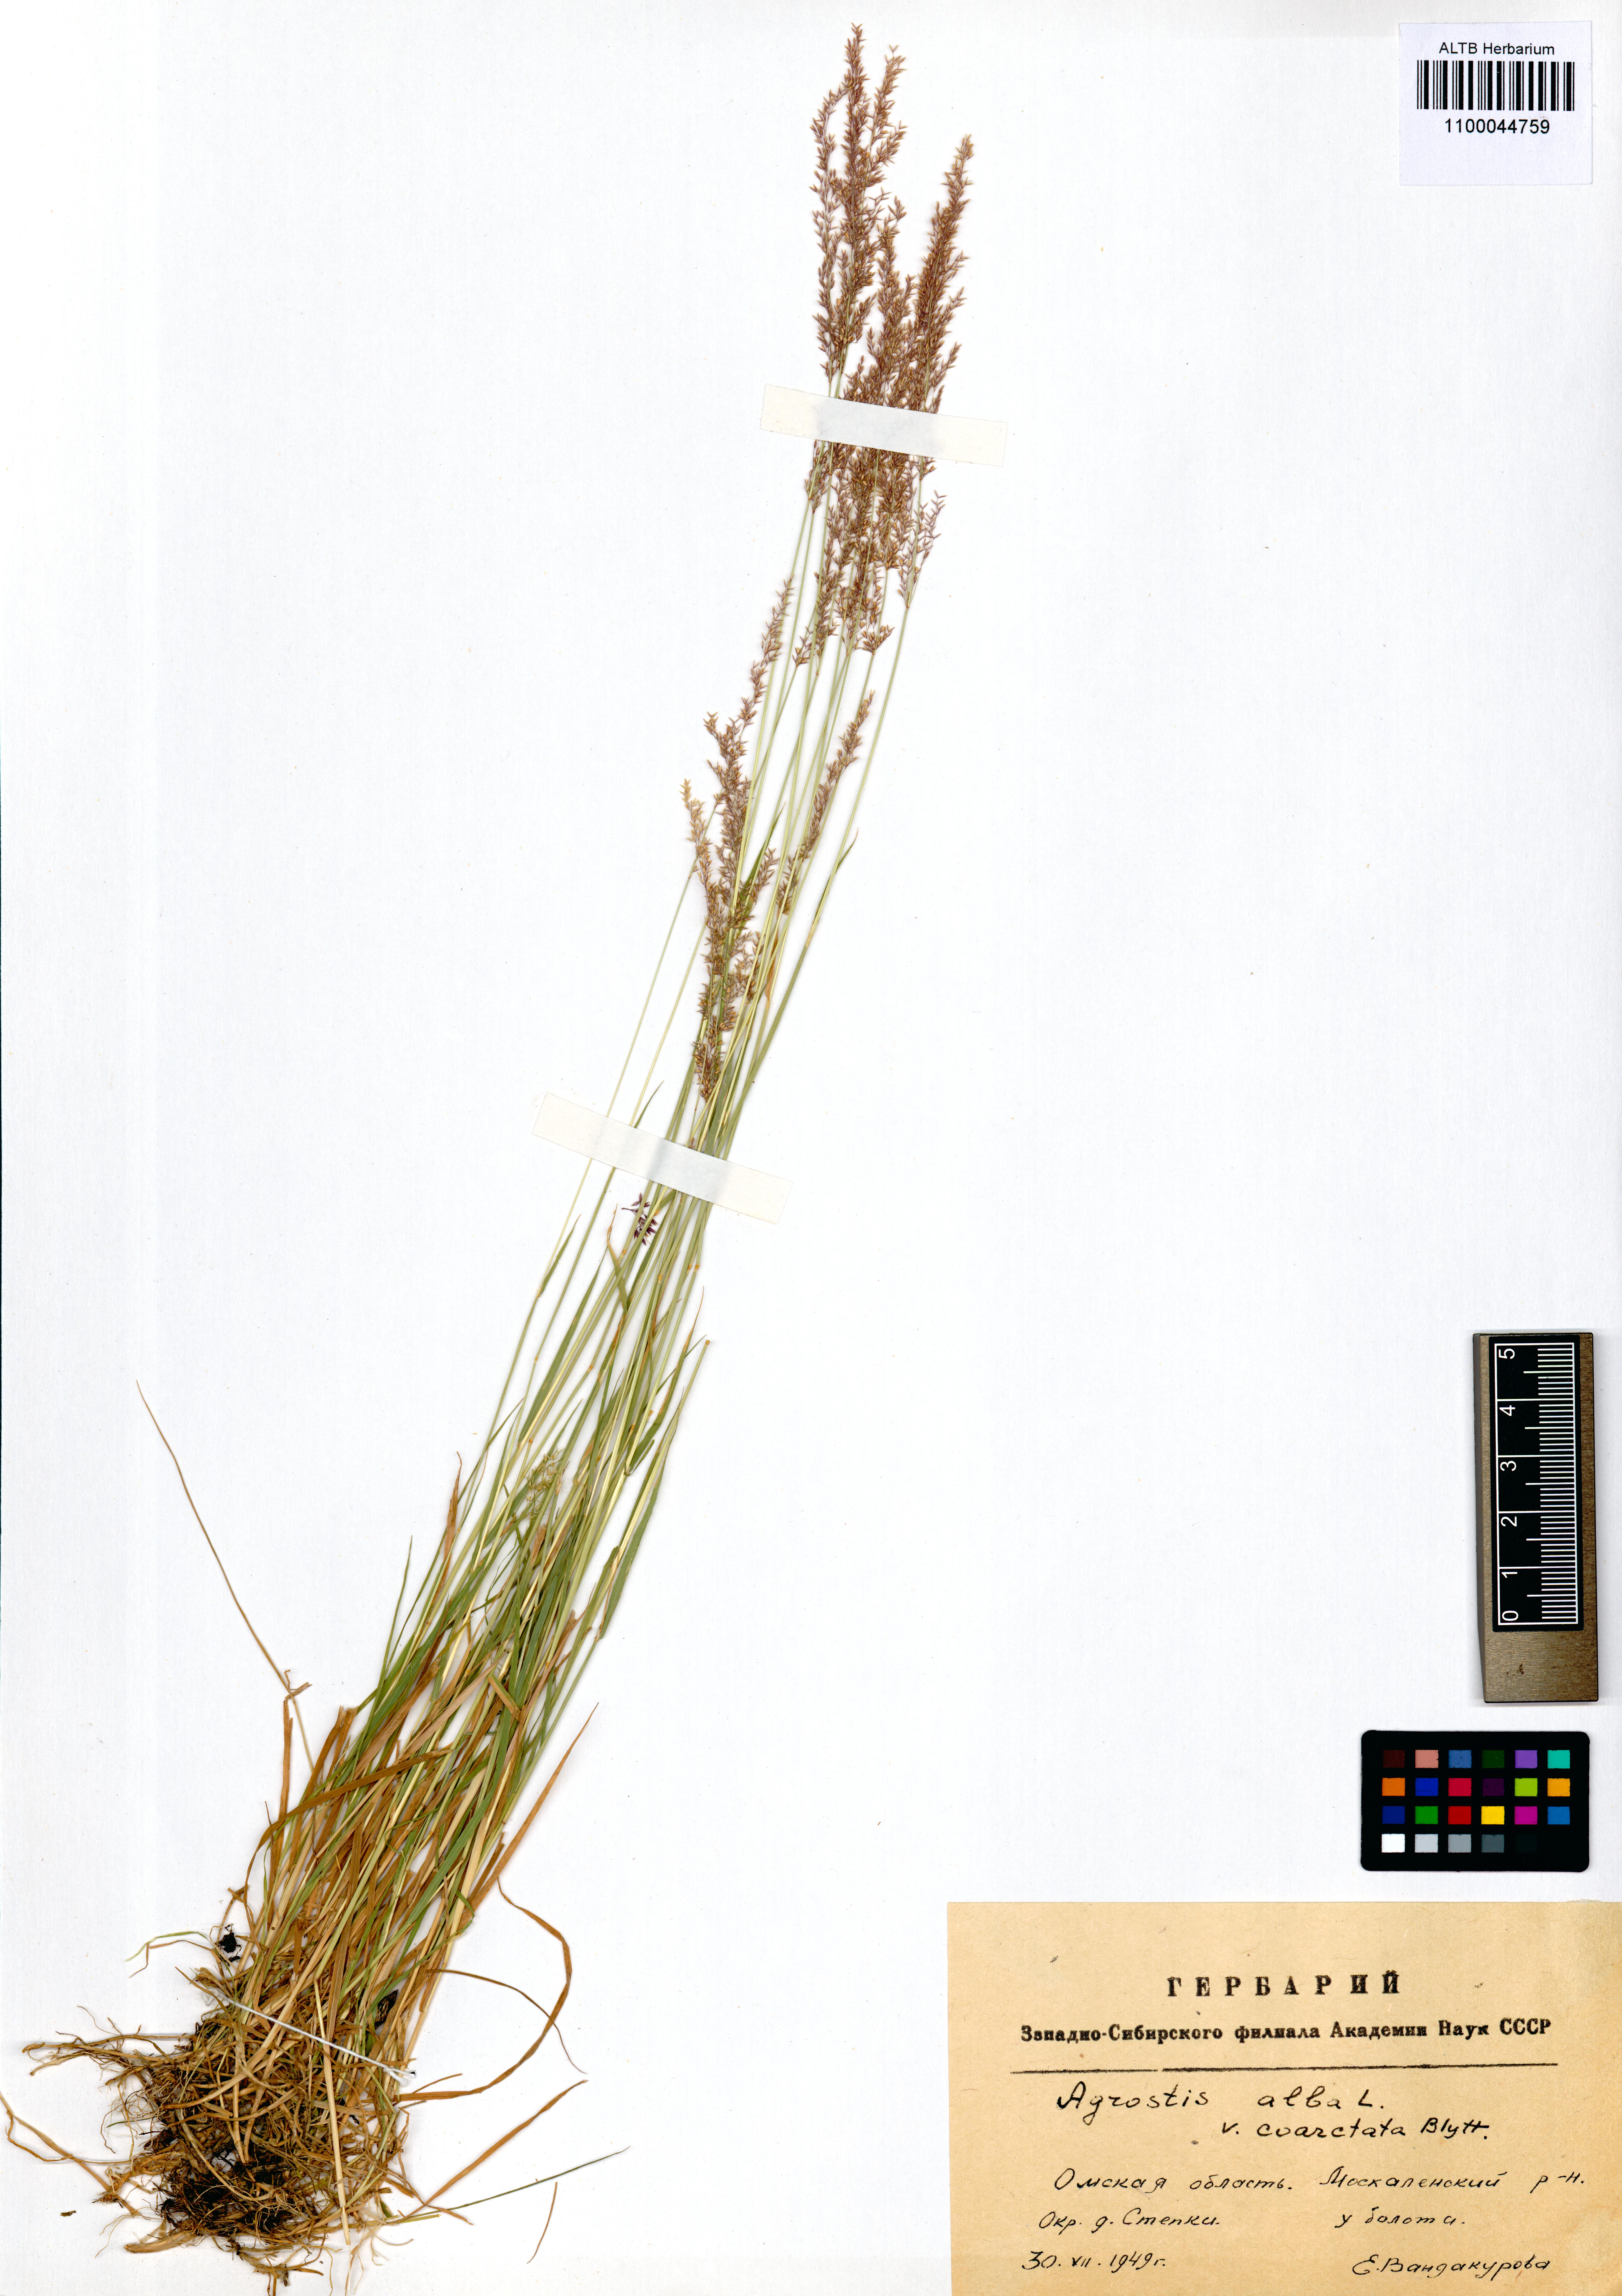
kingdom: Plantae
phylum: Tracheophyta
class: Liliopsida
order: Poales
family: Poaceae
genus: Agrostis
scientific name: Agrostis gigantea
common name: Black bent
